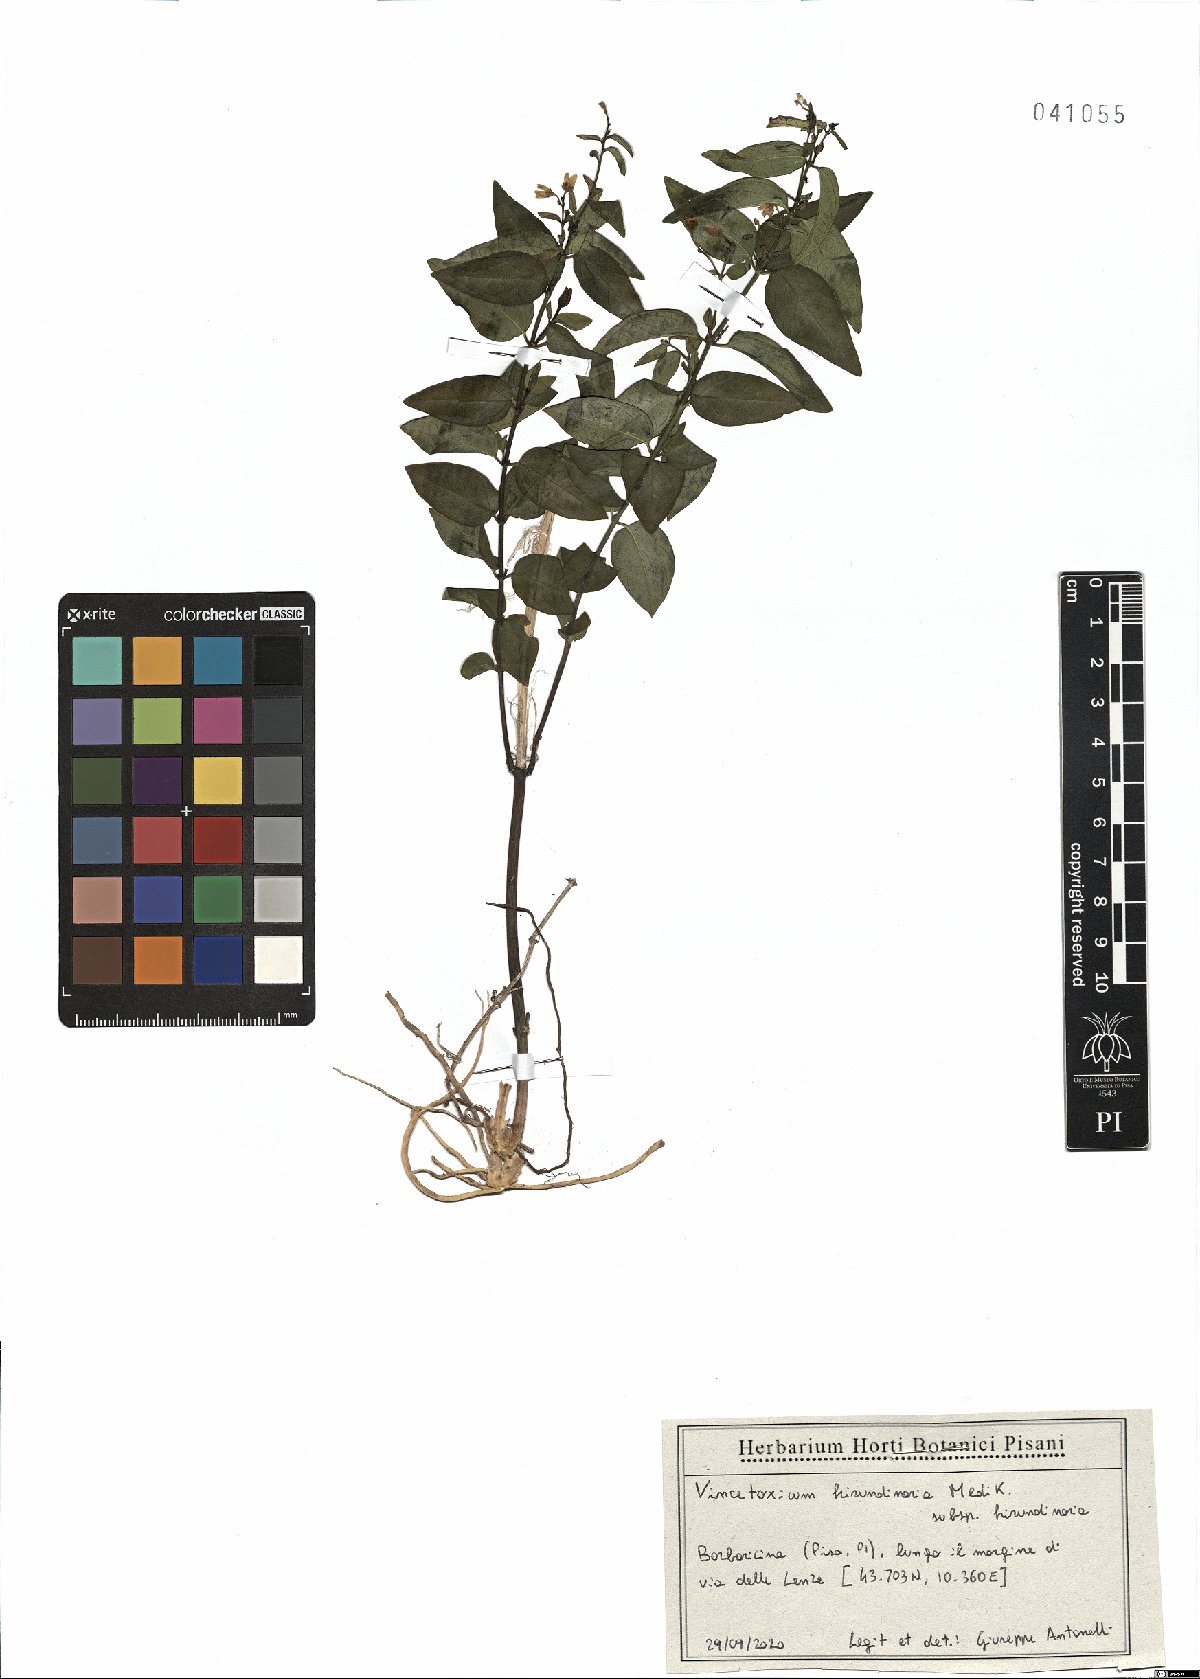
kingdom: Plantae
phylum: Tracheophyta
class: Magnoliopsida
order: Gentianales
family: Apocynaceae
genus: Vincetoxicum
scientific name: Vincetoxicum hirundinaria
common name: White swallowwort
